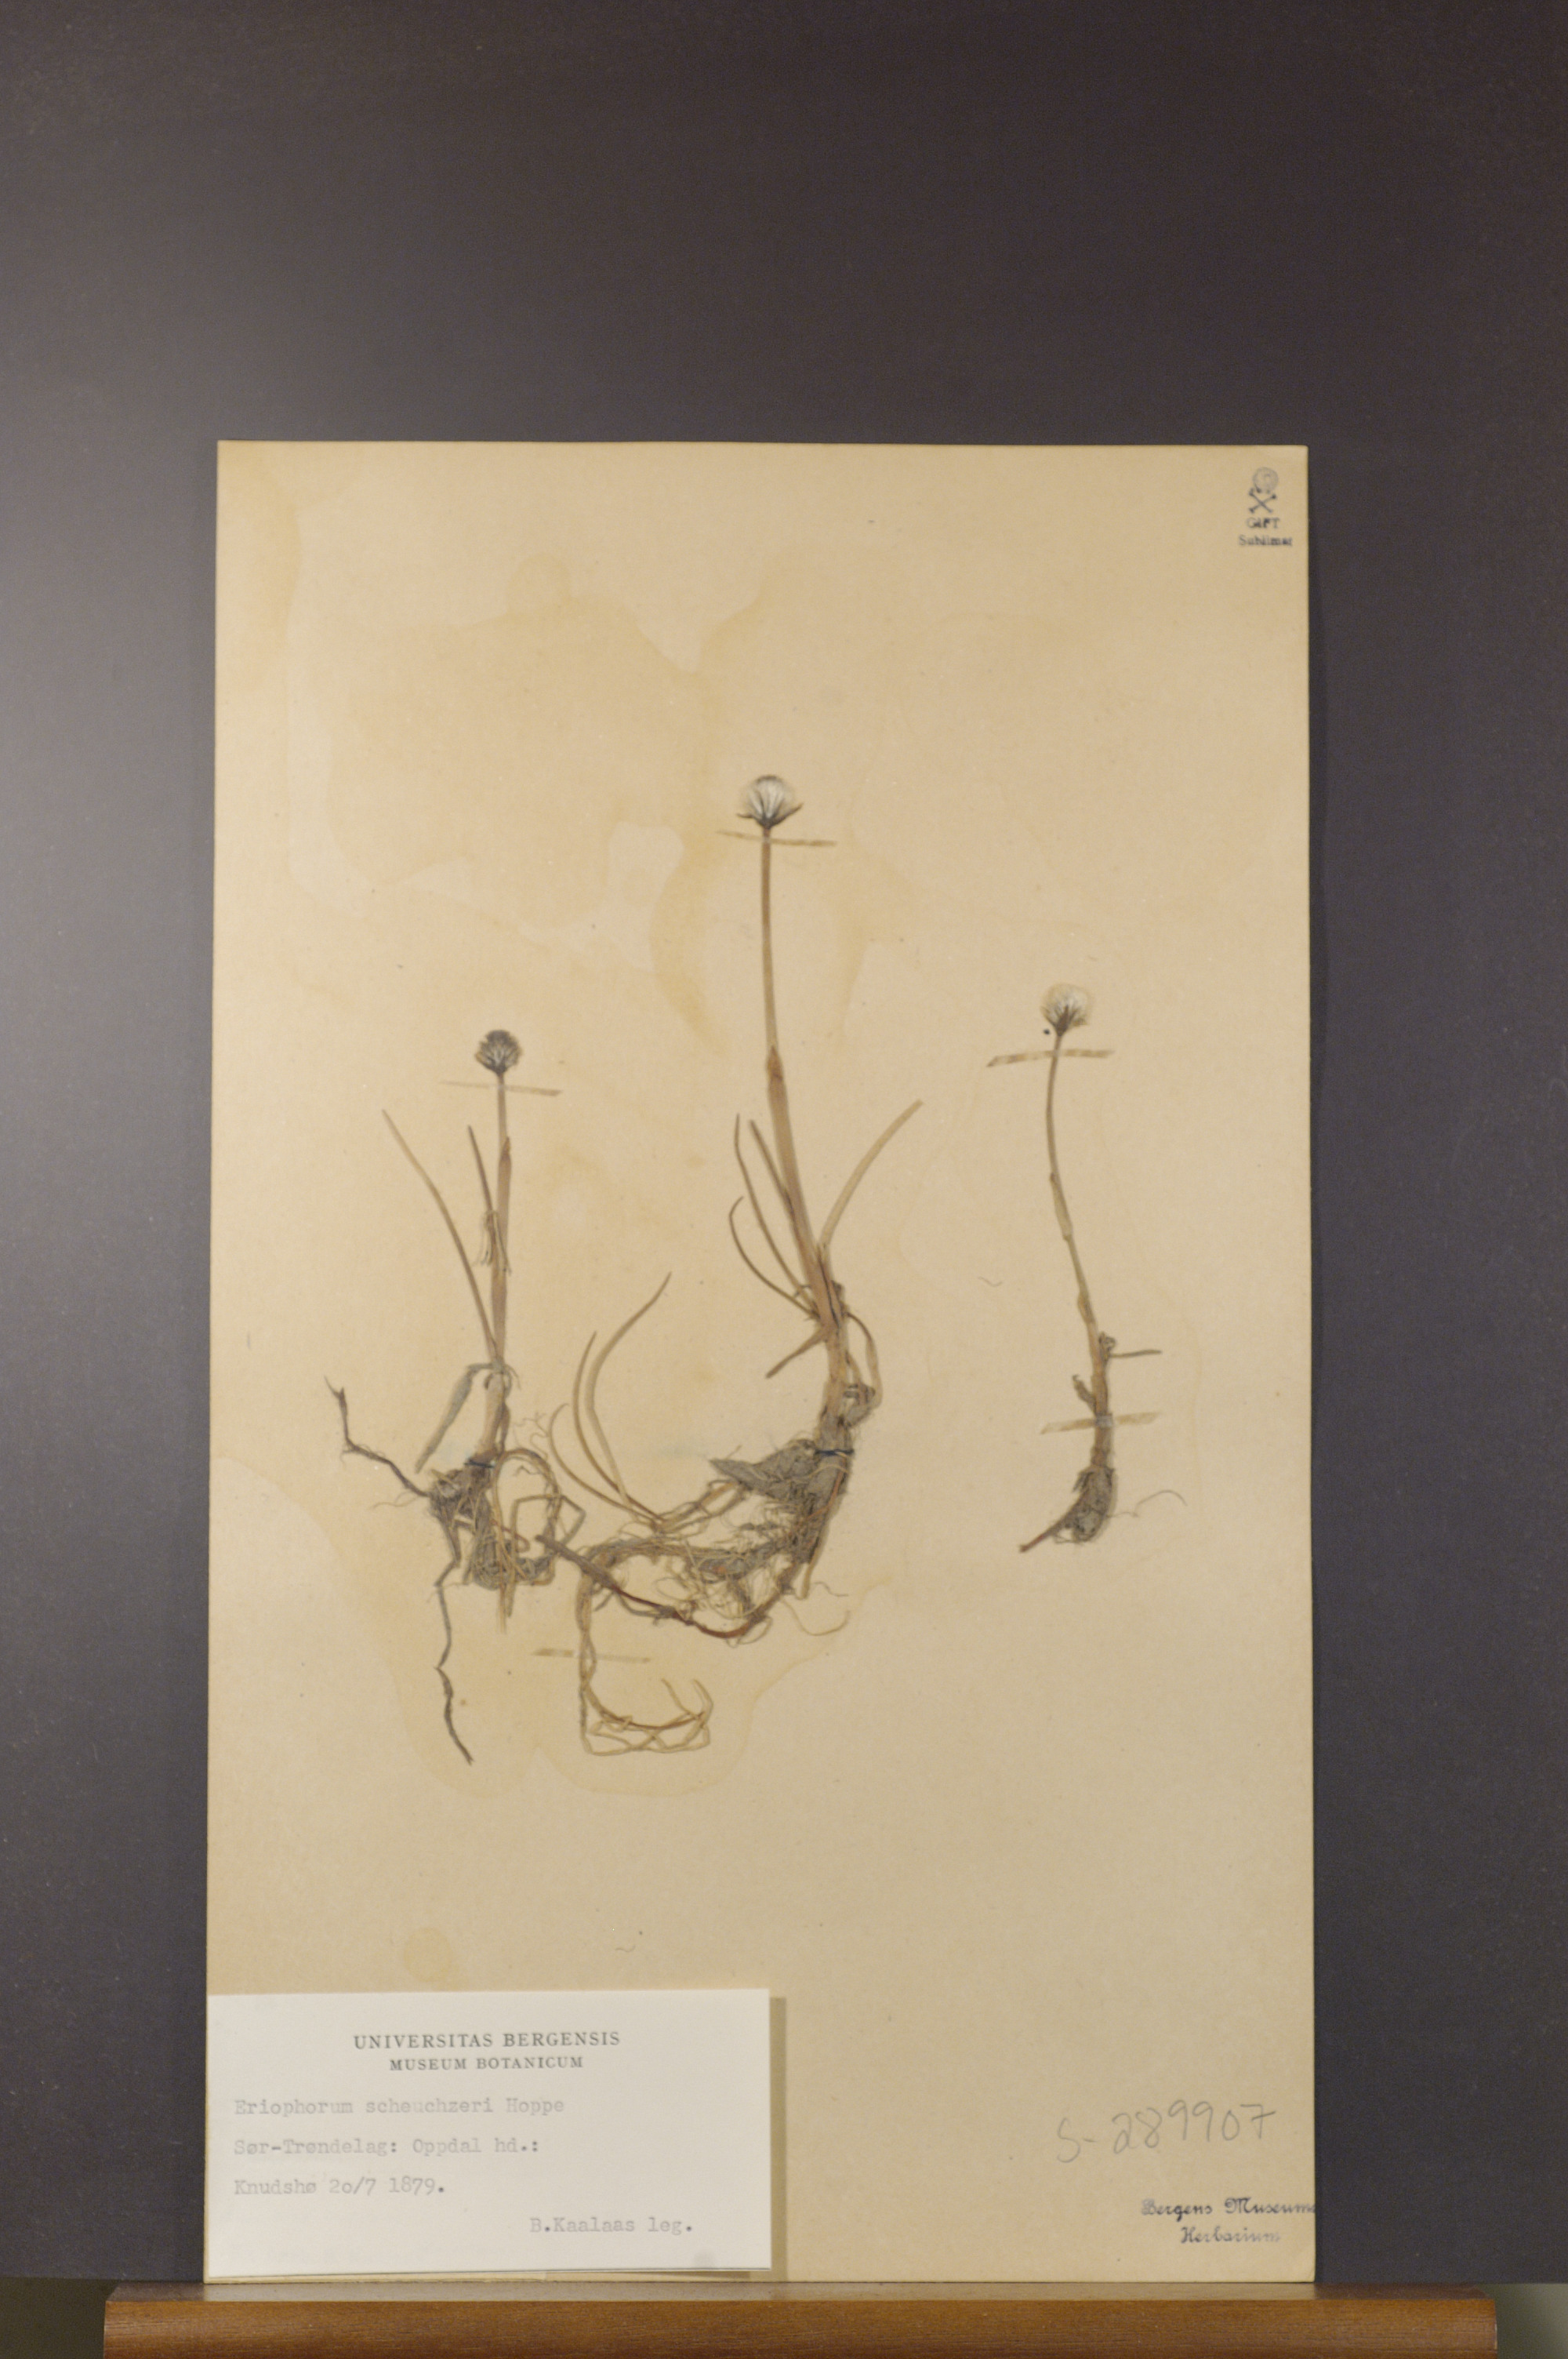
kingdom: Plantae
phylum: Tracheophyta
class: Liliopsida
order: Poales
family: Cyperaceae
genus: Eriophorum
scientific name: Eriophorum scheuchzeri
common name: Scheuchzer's cottongrass
